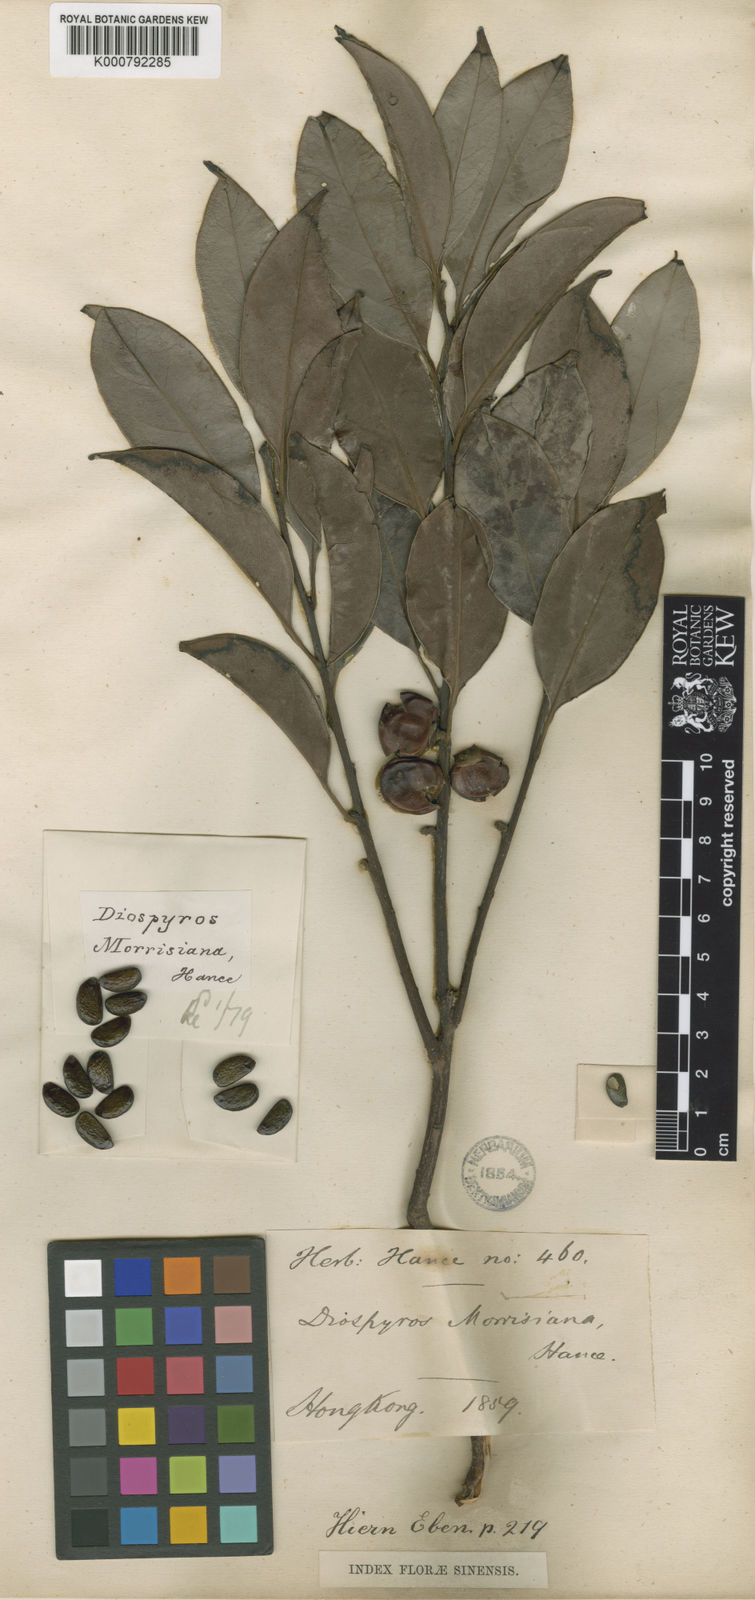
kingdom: Plantae
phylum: Tracheophyta
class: Magnoliopsida
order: Ericales
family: Ebenaceae
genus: Diospyros
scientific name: Diospyros
